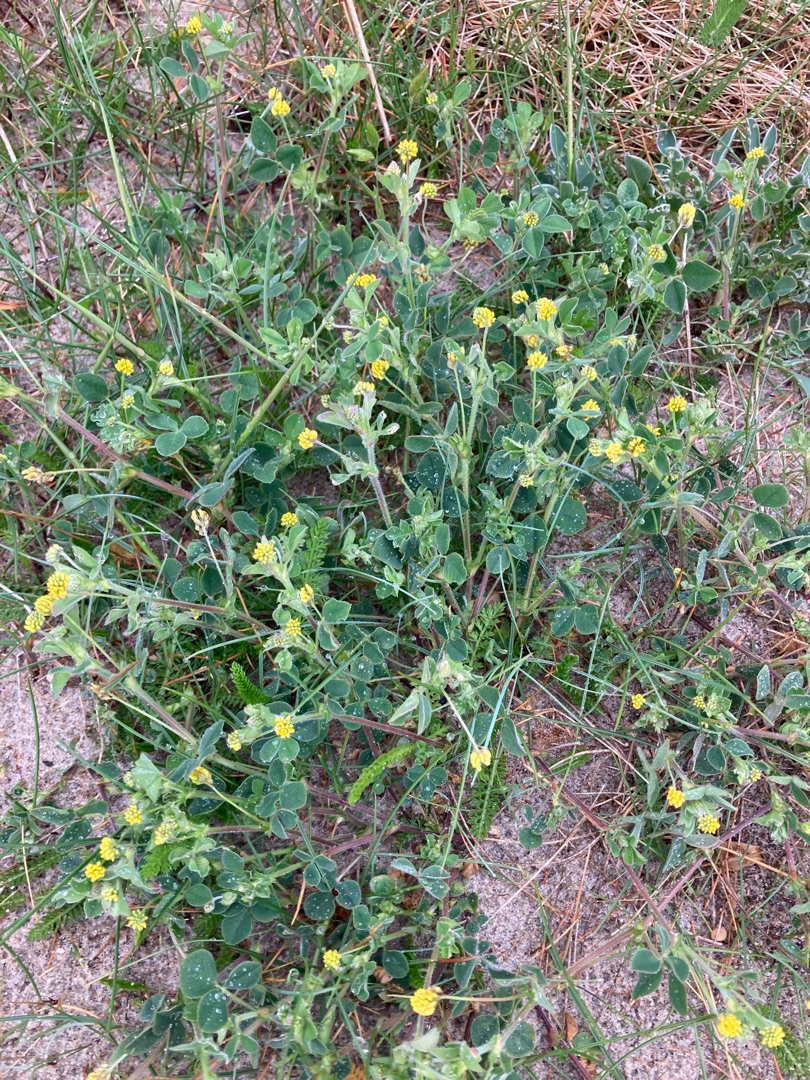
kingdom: Plantae
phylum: Tracheophyta
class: Magnoliopsida
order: Fabales
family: Fabaceae
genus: Medicago
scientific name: Medicago lupulina
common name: Humle-sneglebælg
